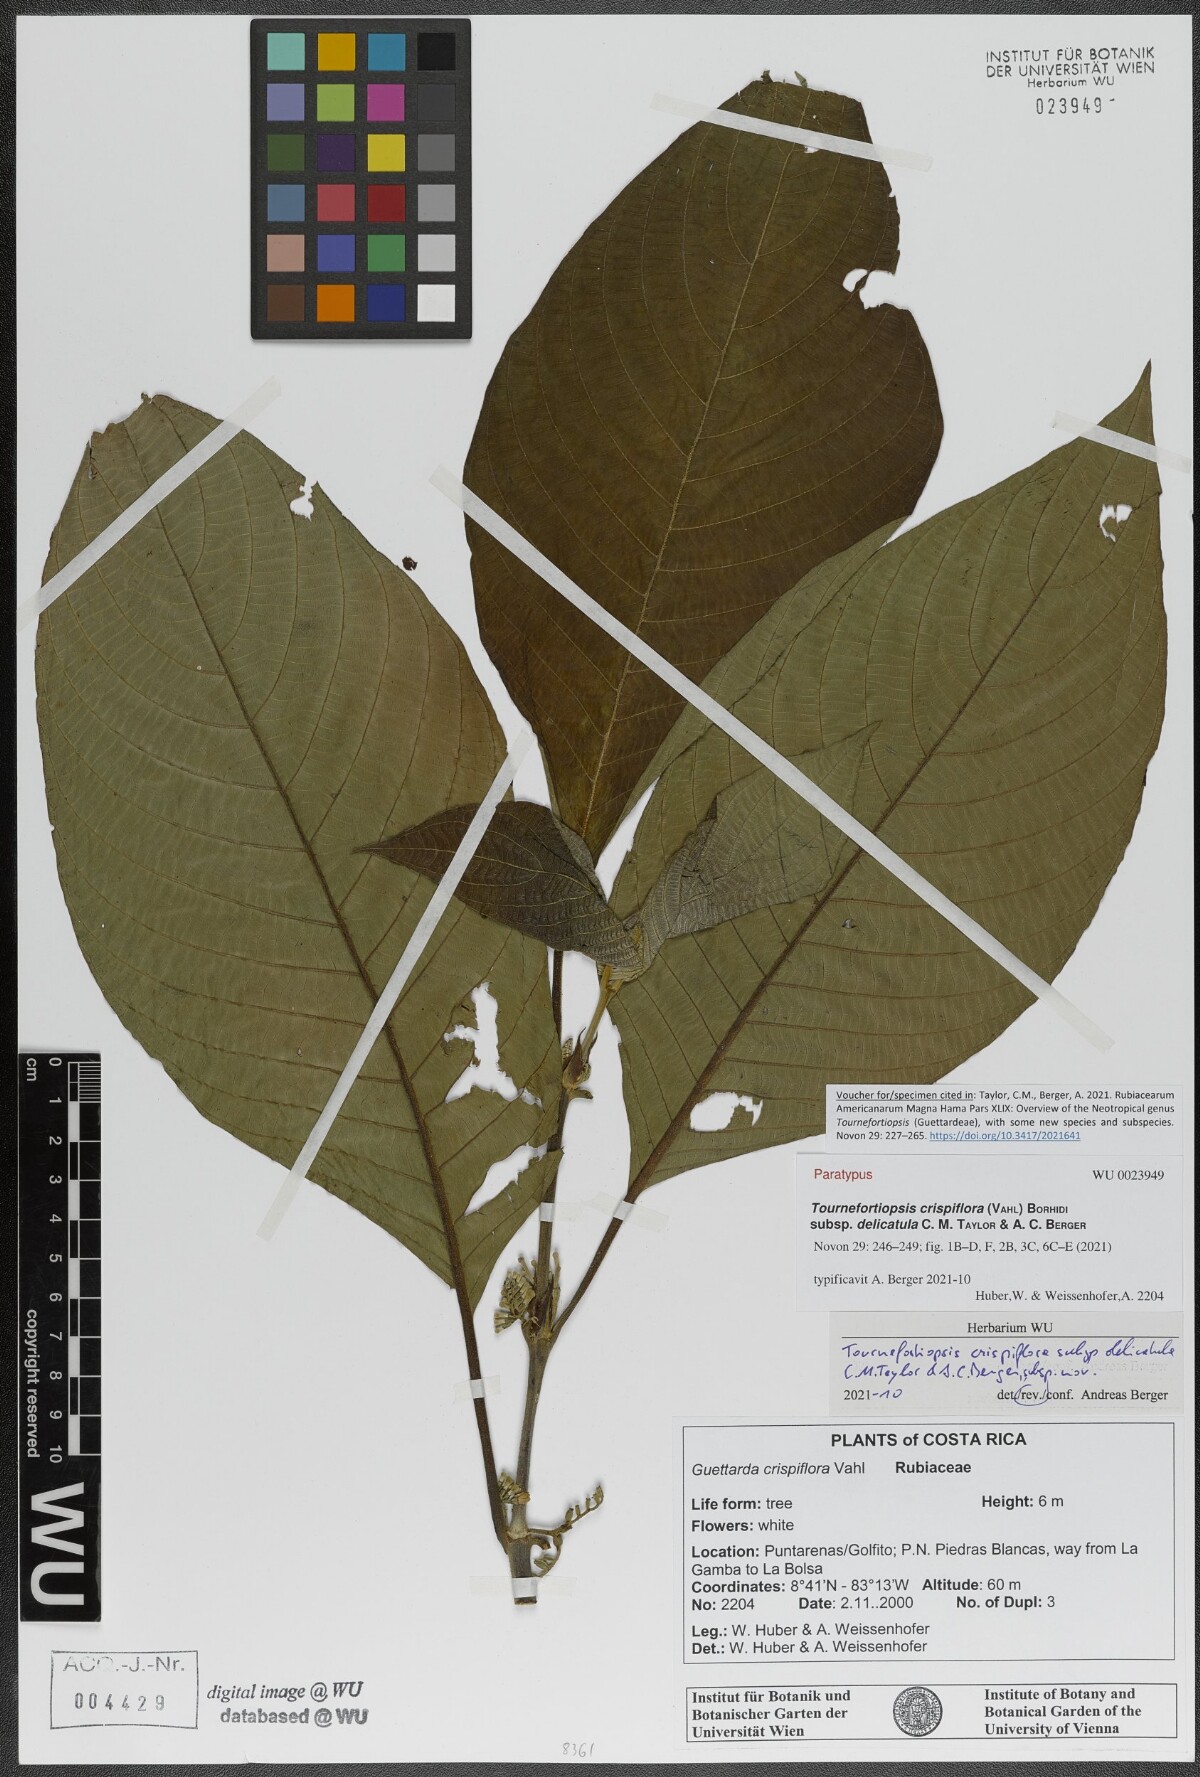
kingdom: Plantae
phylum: Tracheophyta
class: Magnoliopsida
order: Gentianales
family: Rubiaceae
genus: Tournefortiopsis
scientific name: Tournefortiopsis crispiflora
